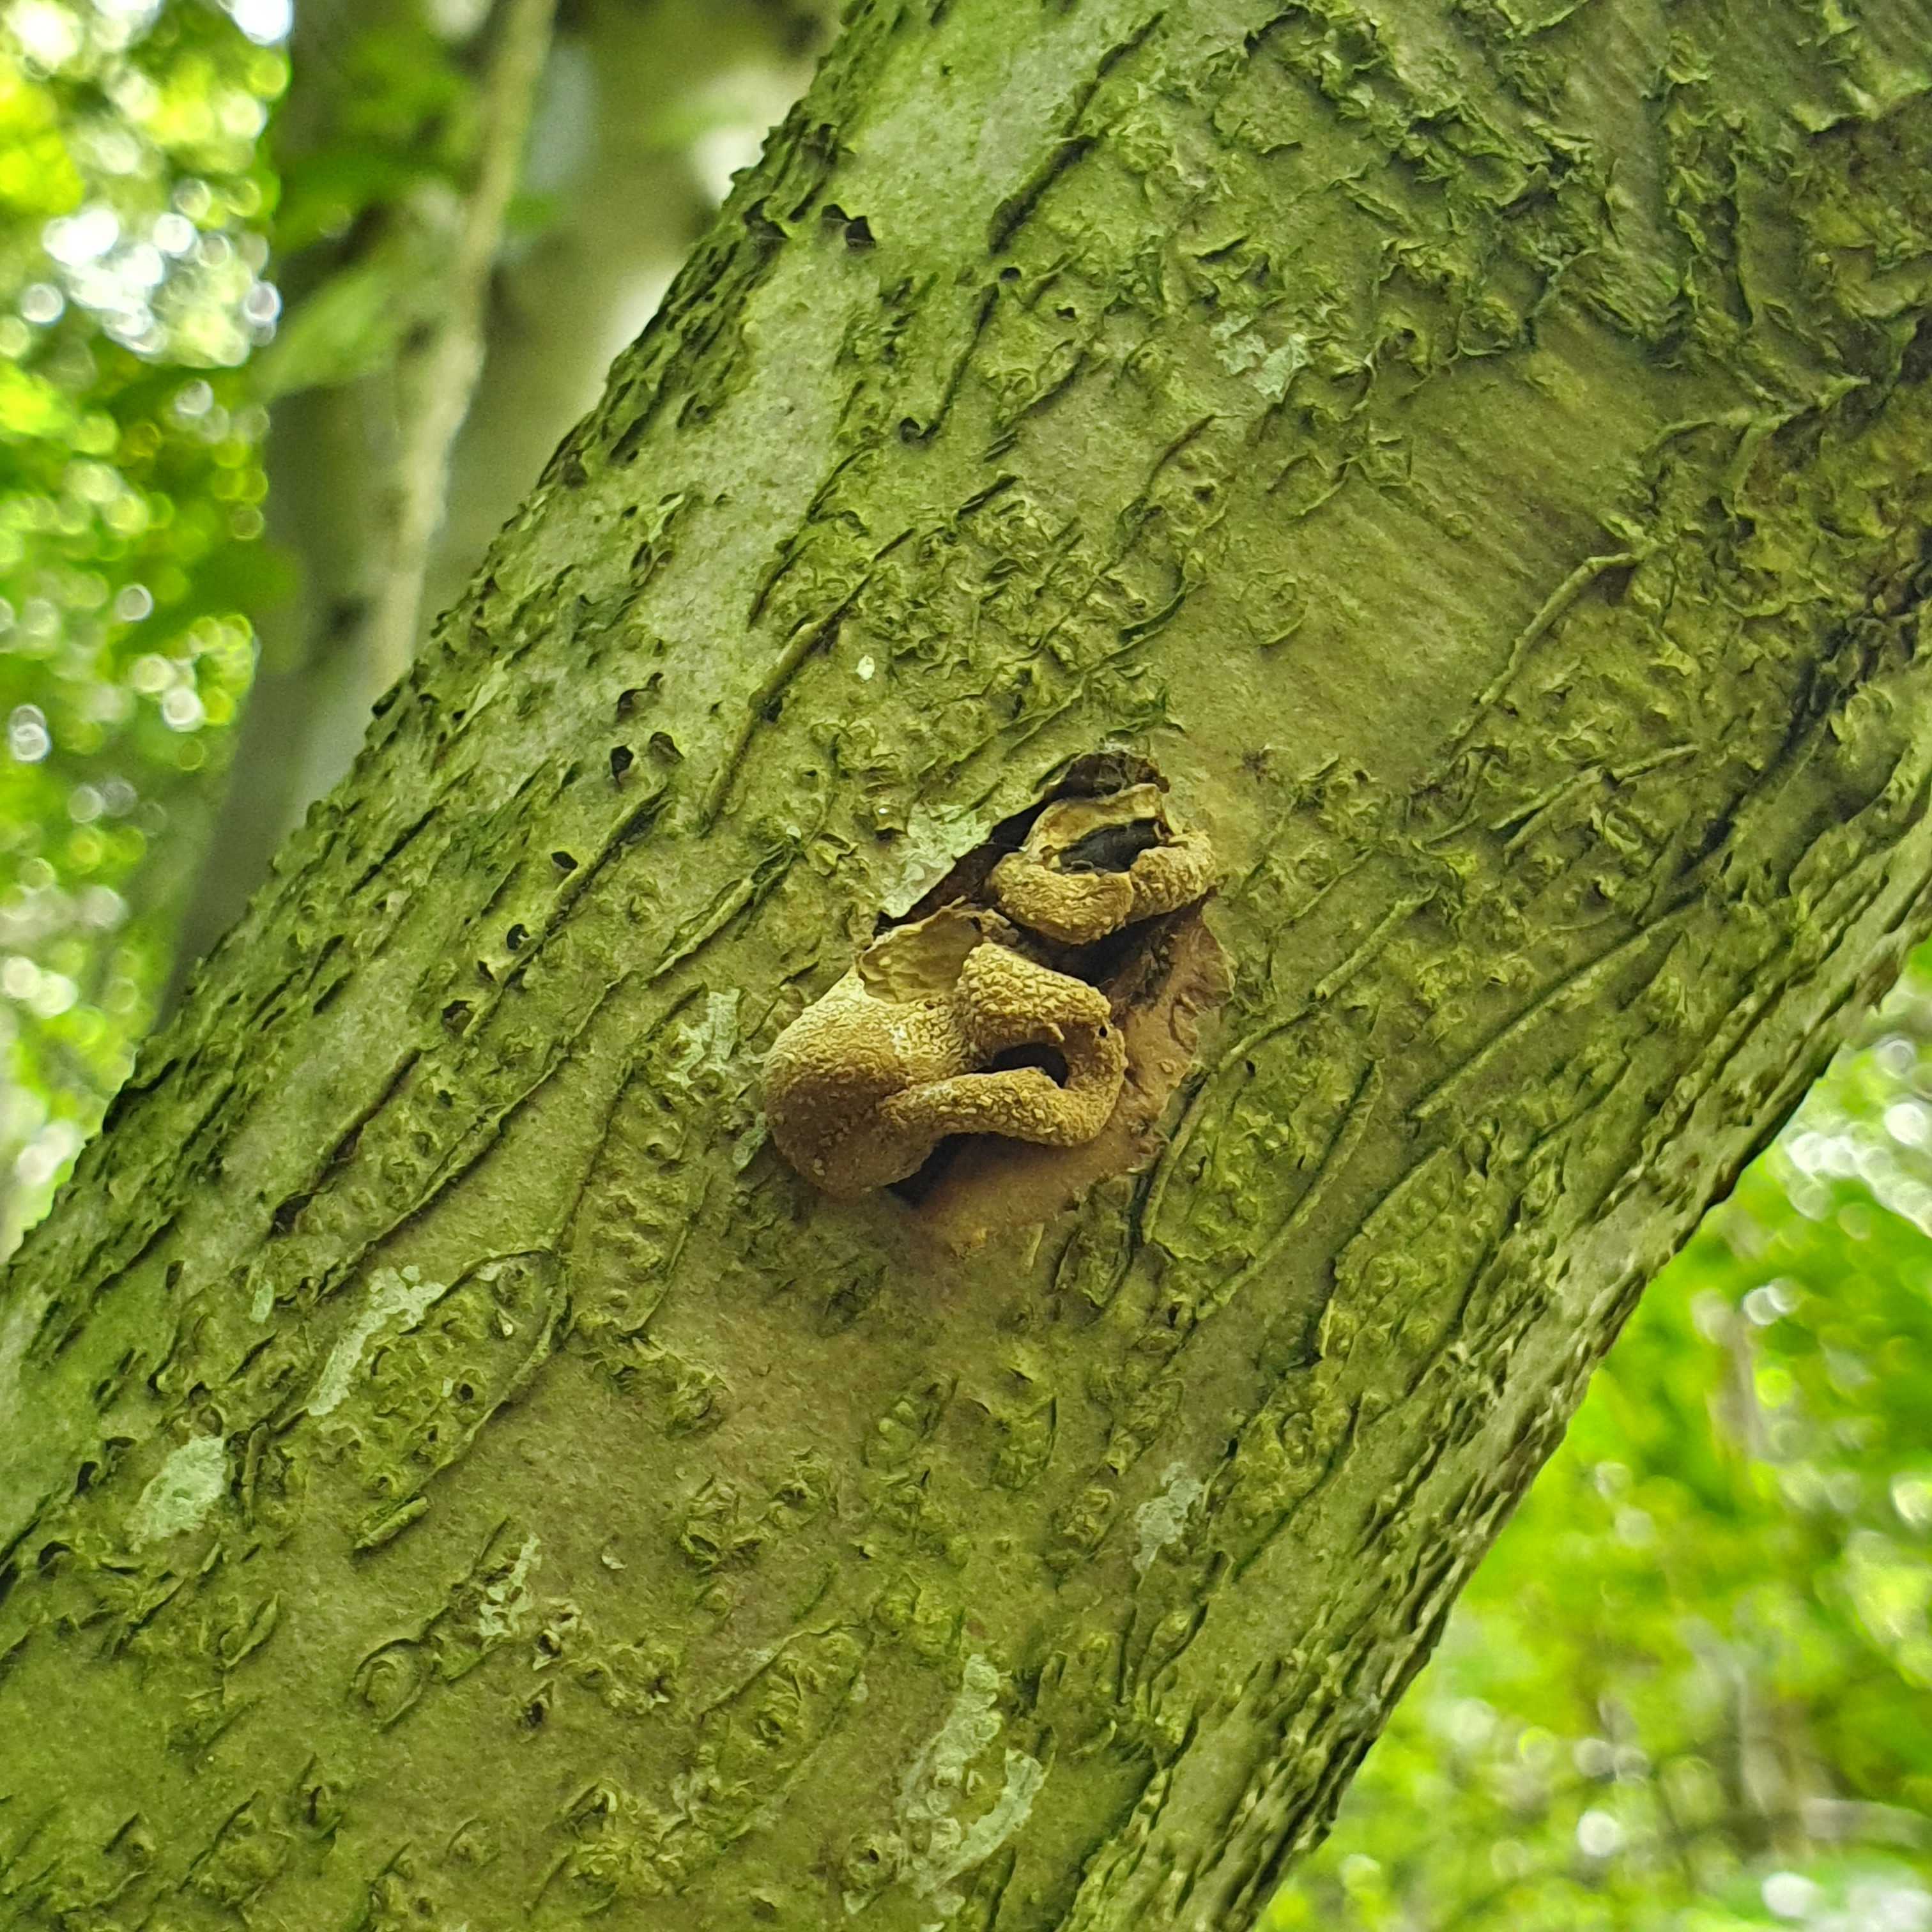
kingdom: Fungi
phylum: Ascomycota
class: Leotiomycetes
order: Helotiales
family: Cenangiaceae
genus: Encoelia
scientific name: Encoelia furfuracea
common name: hassel-læderskive
